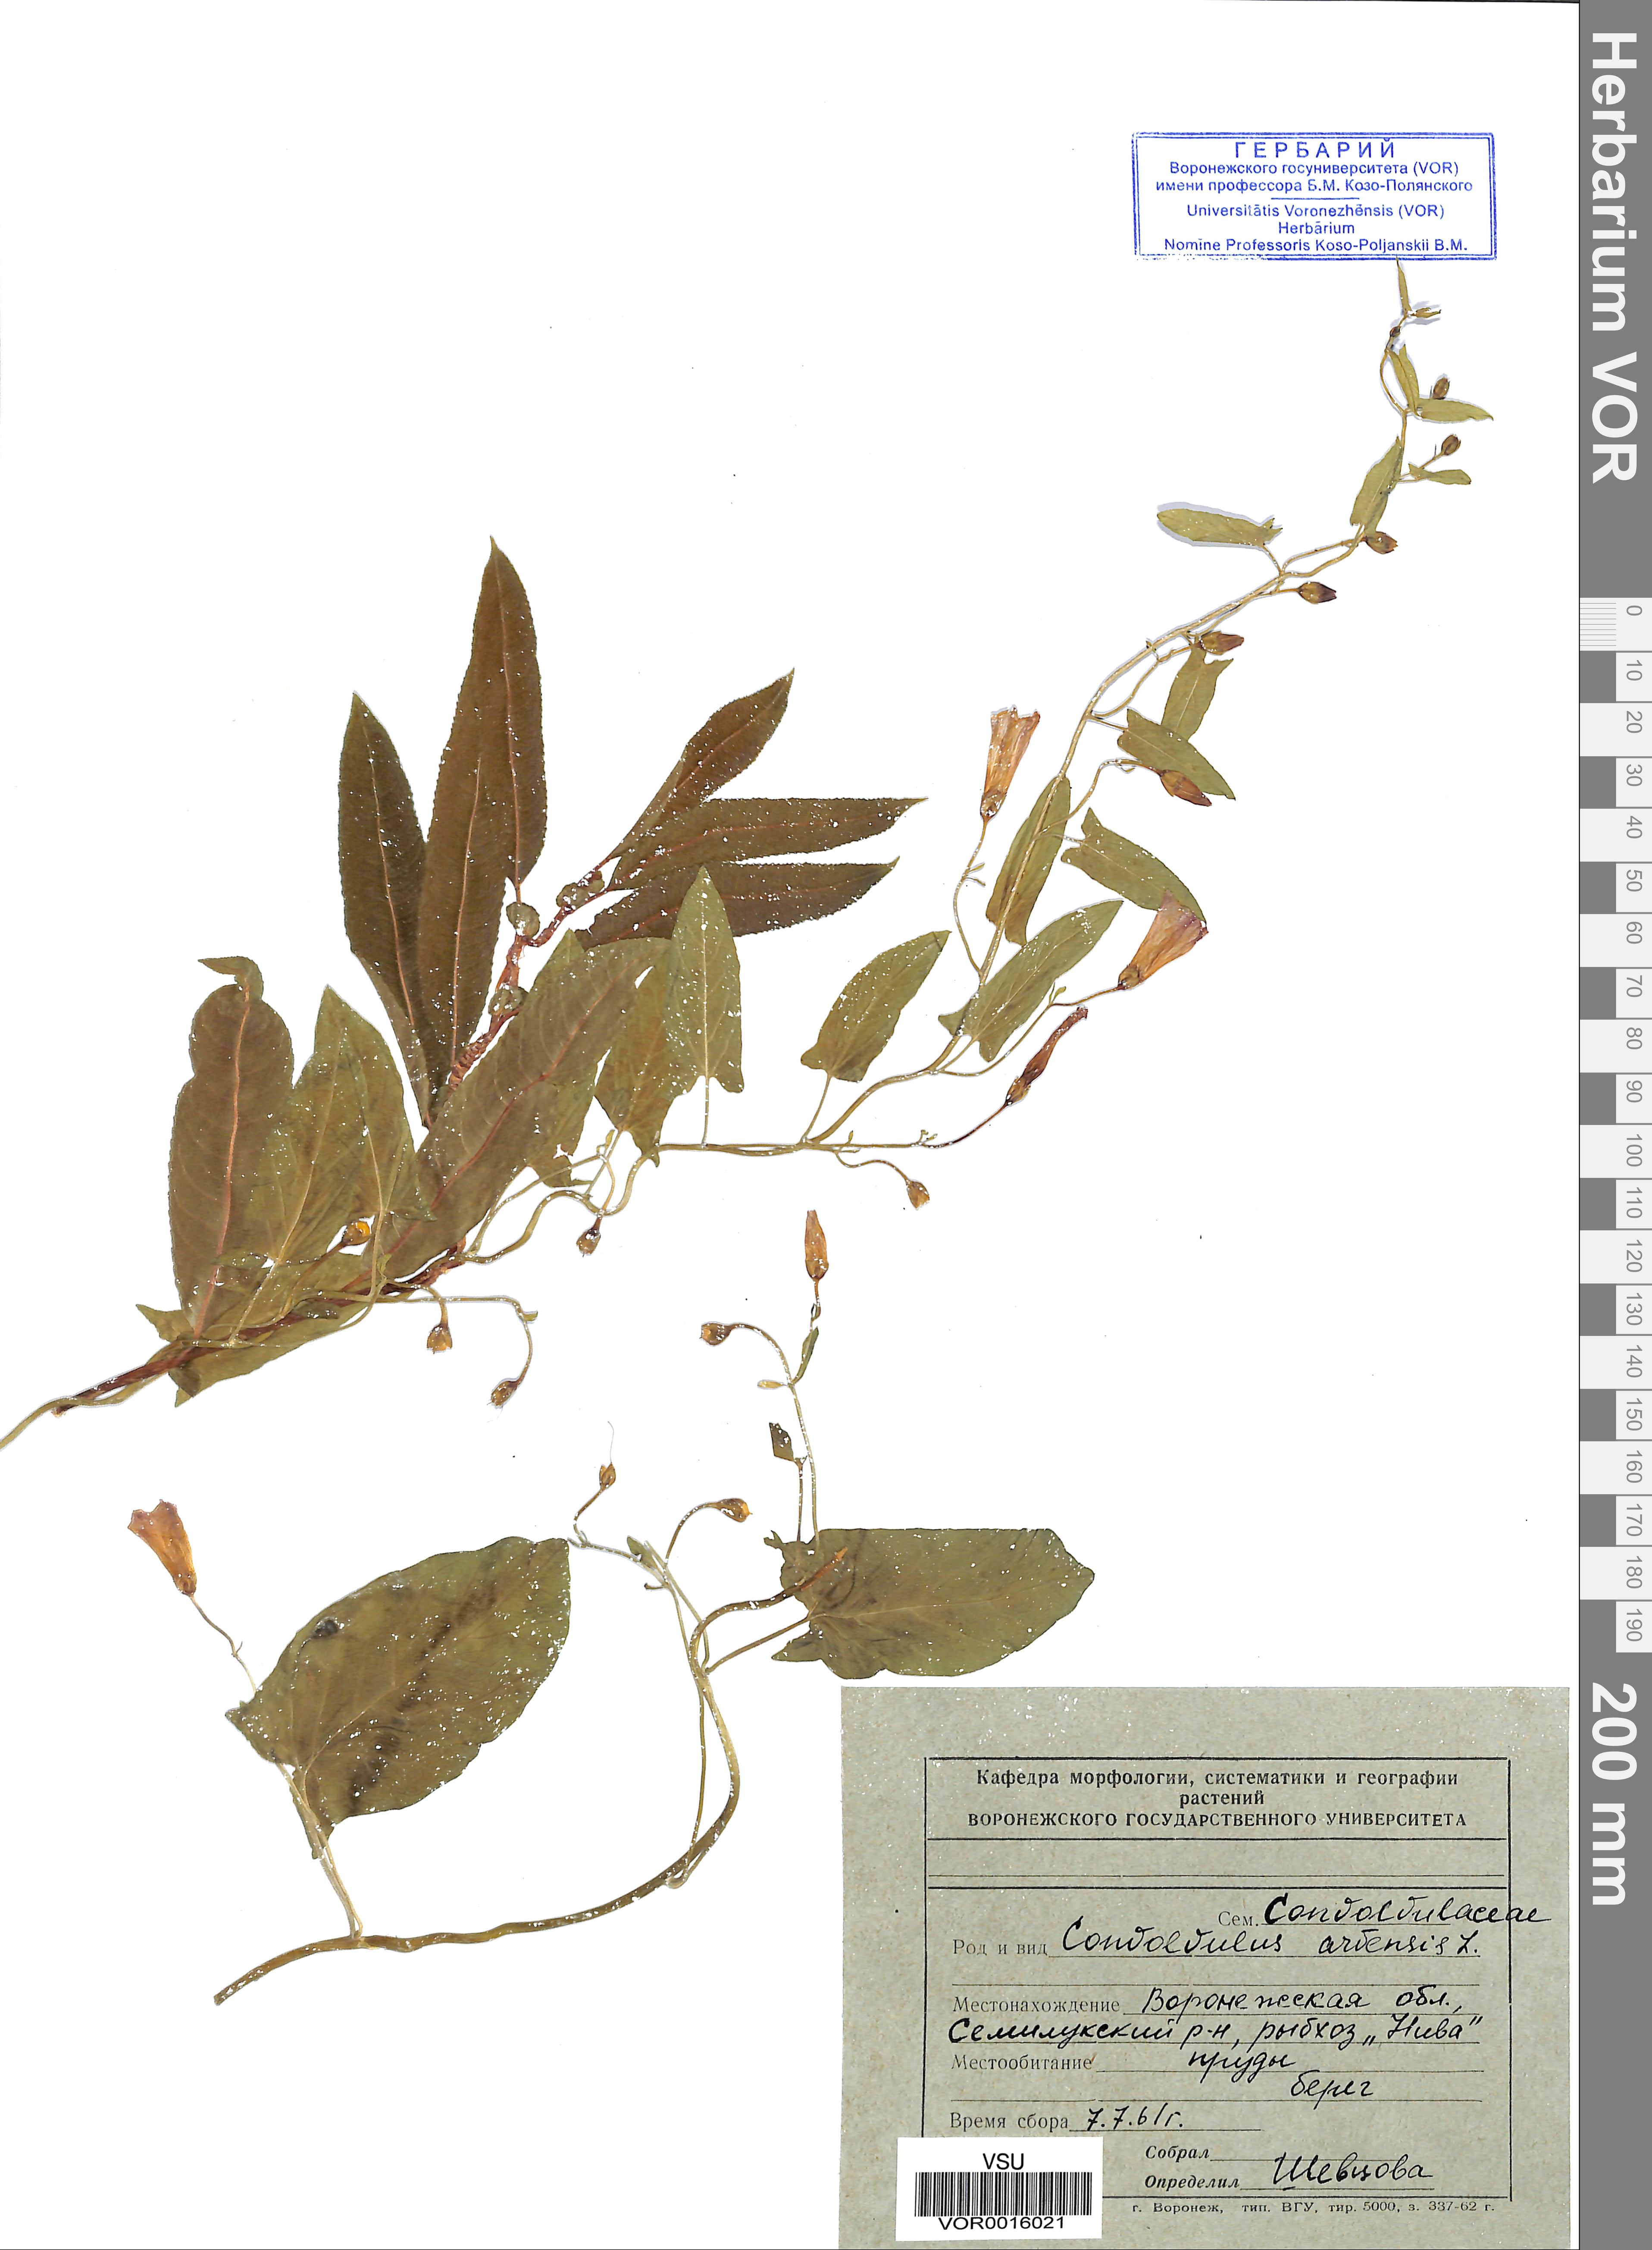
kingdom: Plantae
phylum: Tracheophyta
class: Magnoliopsida
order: Solanales
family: Convolvulaceae
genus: Convolvulus
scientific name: Convolvulus arvensis
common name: Field bindweed
